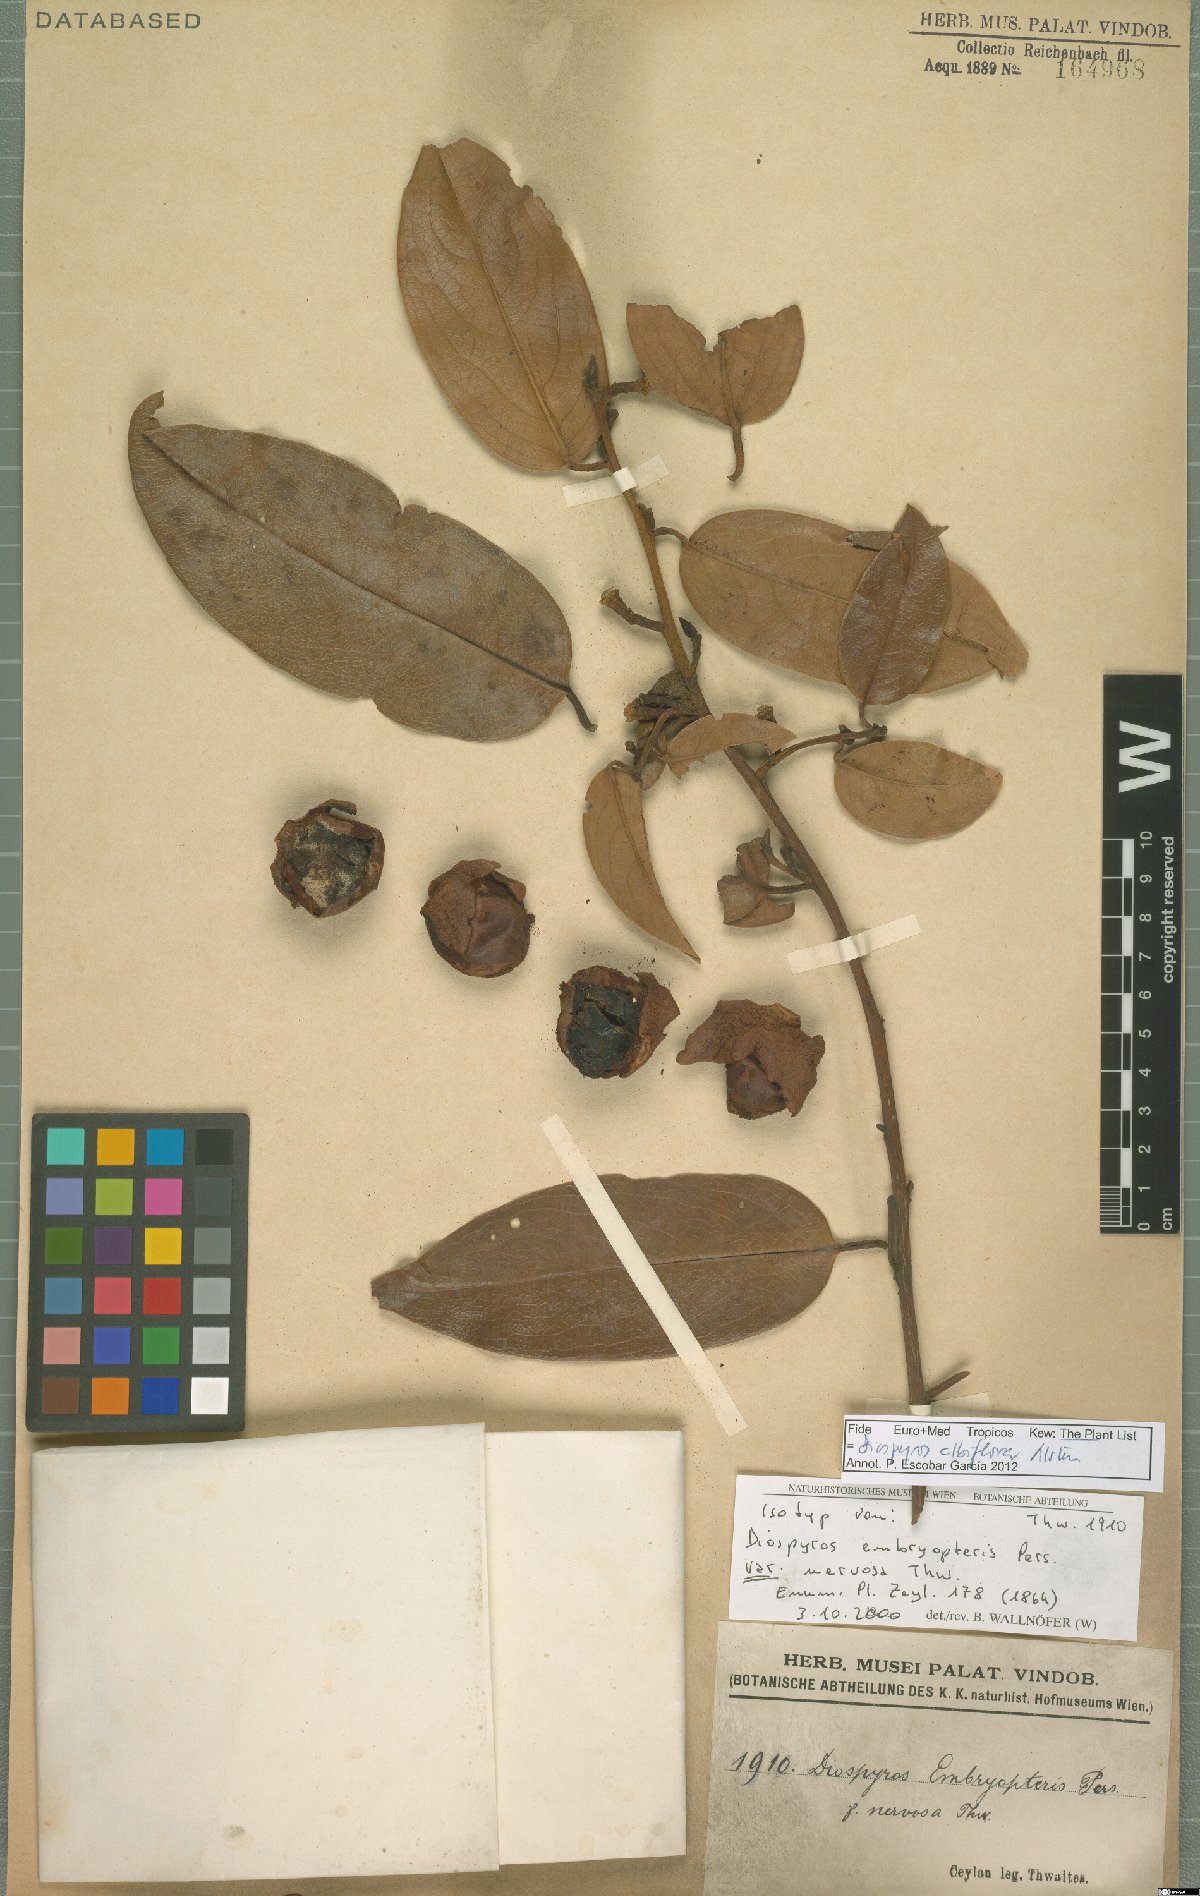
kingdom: Plantae
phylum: Tracheophyta
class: Magnoliopsida
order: Ericales
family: Ebenaceae
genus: Diospyros
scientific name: Diospyros albiflora
